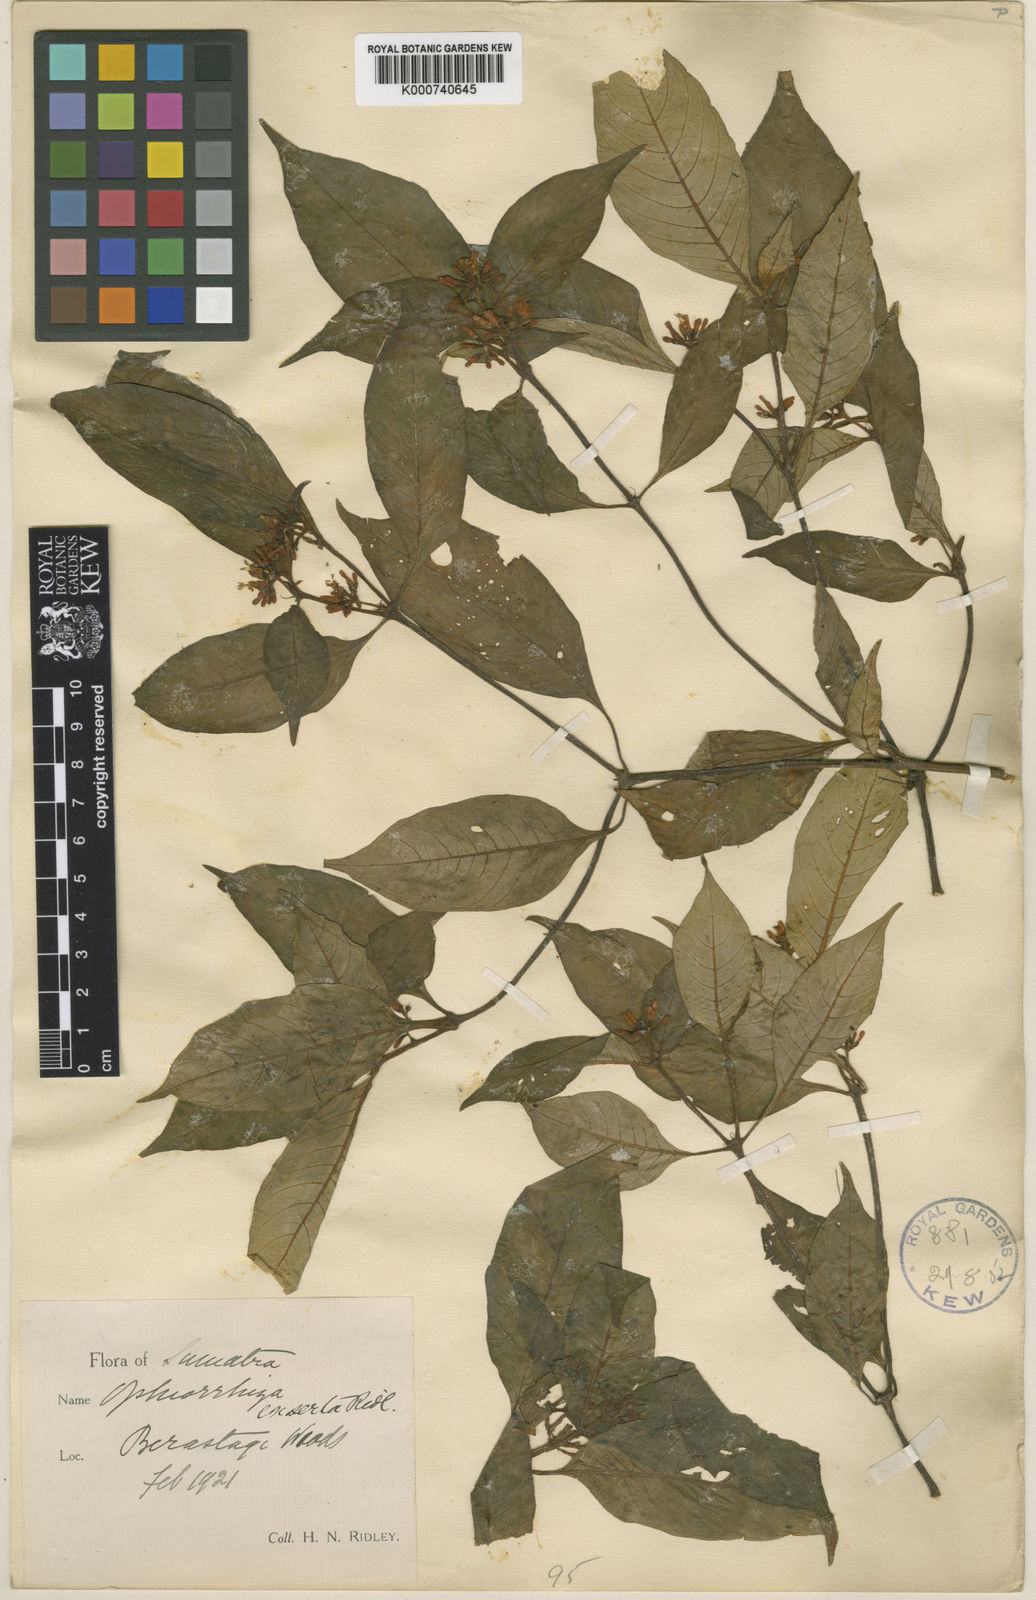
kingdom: Plantae
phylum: Tracheophyta
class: Magnoliopsida
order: Gentianales
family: Rubiaceae
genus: Ophiorrhiza
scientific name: Ophiorrhiza exserta
